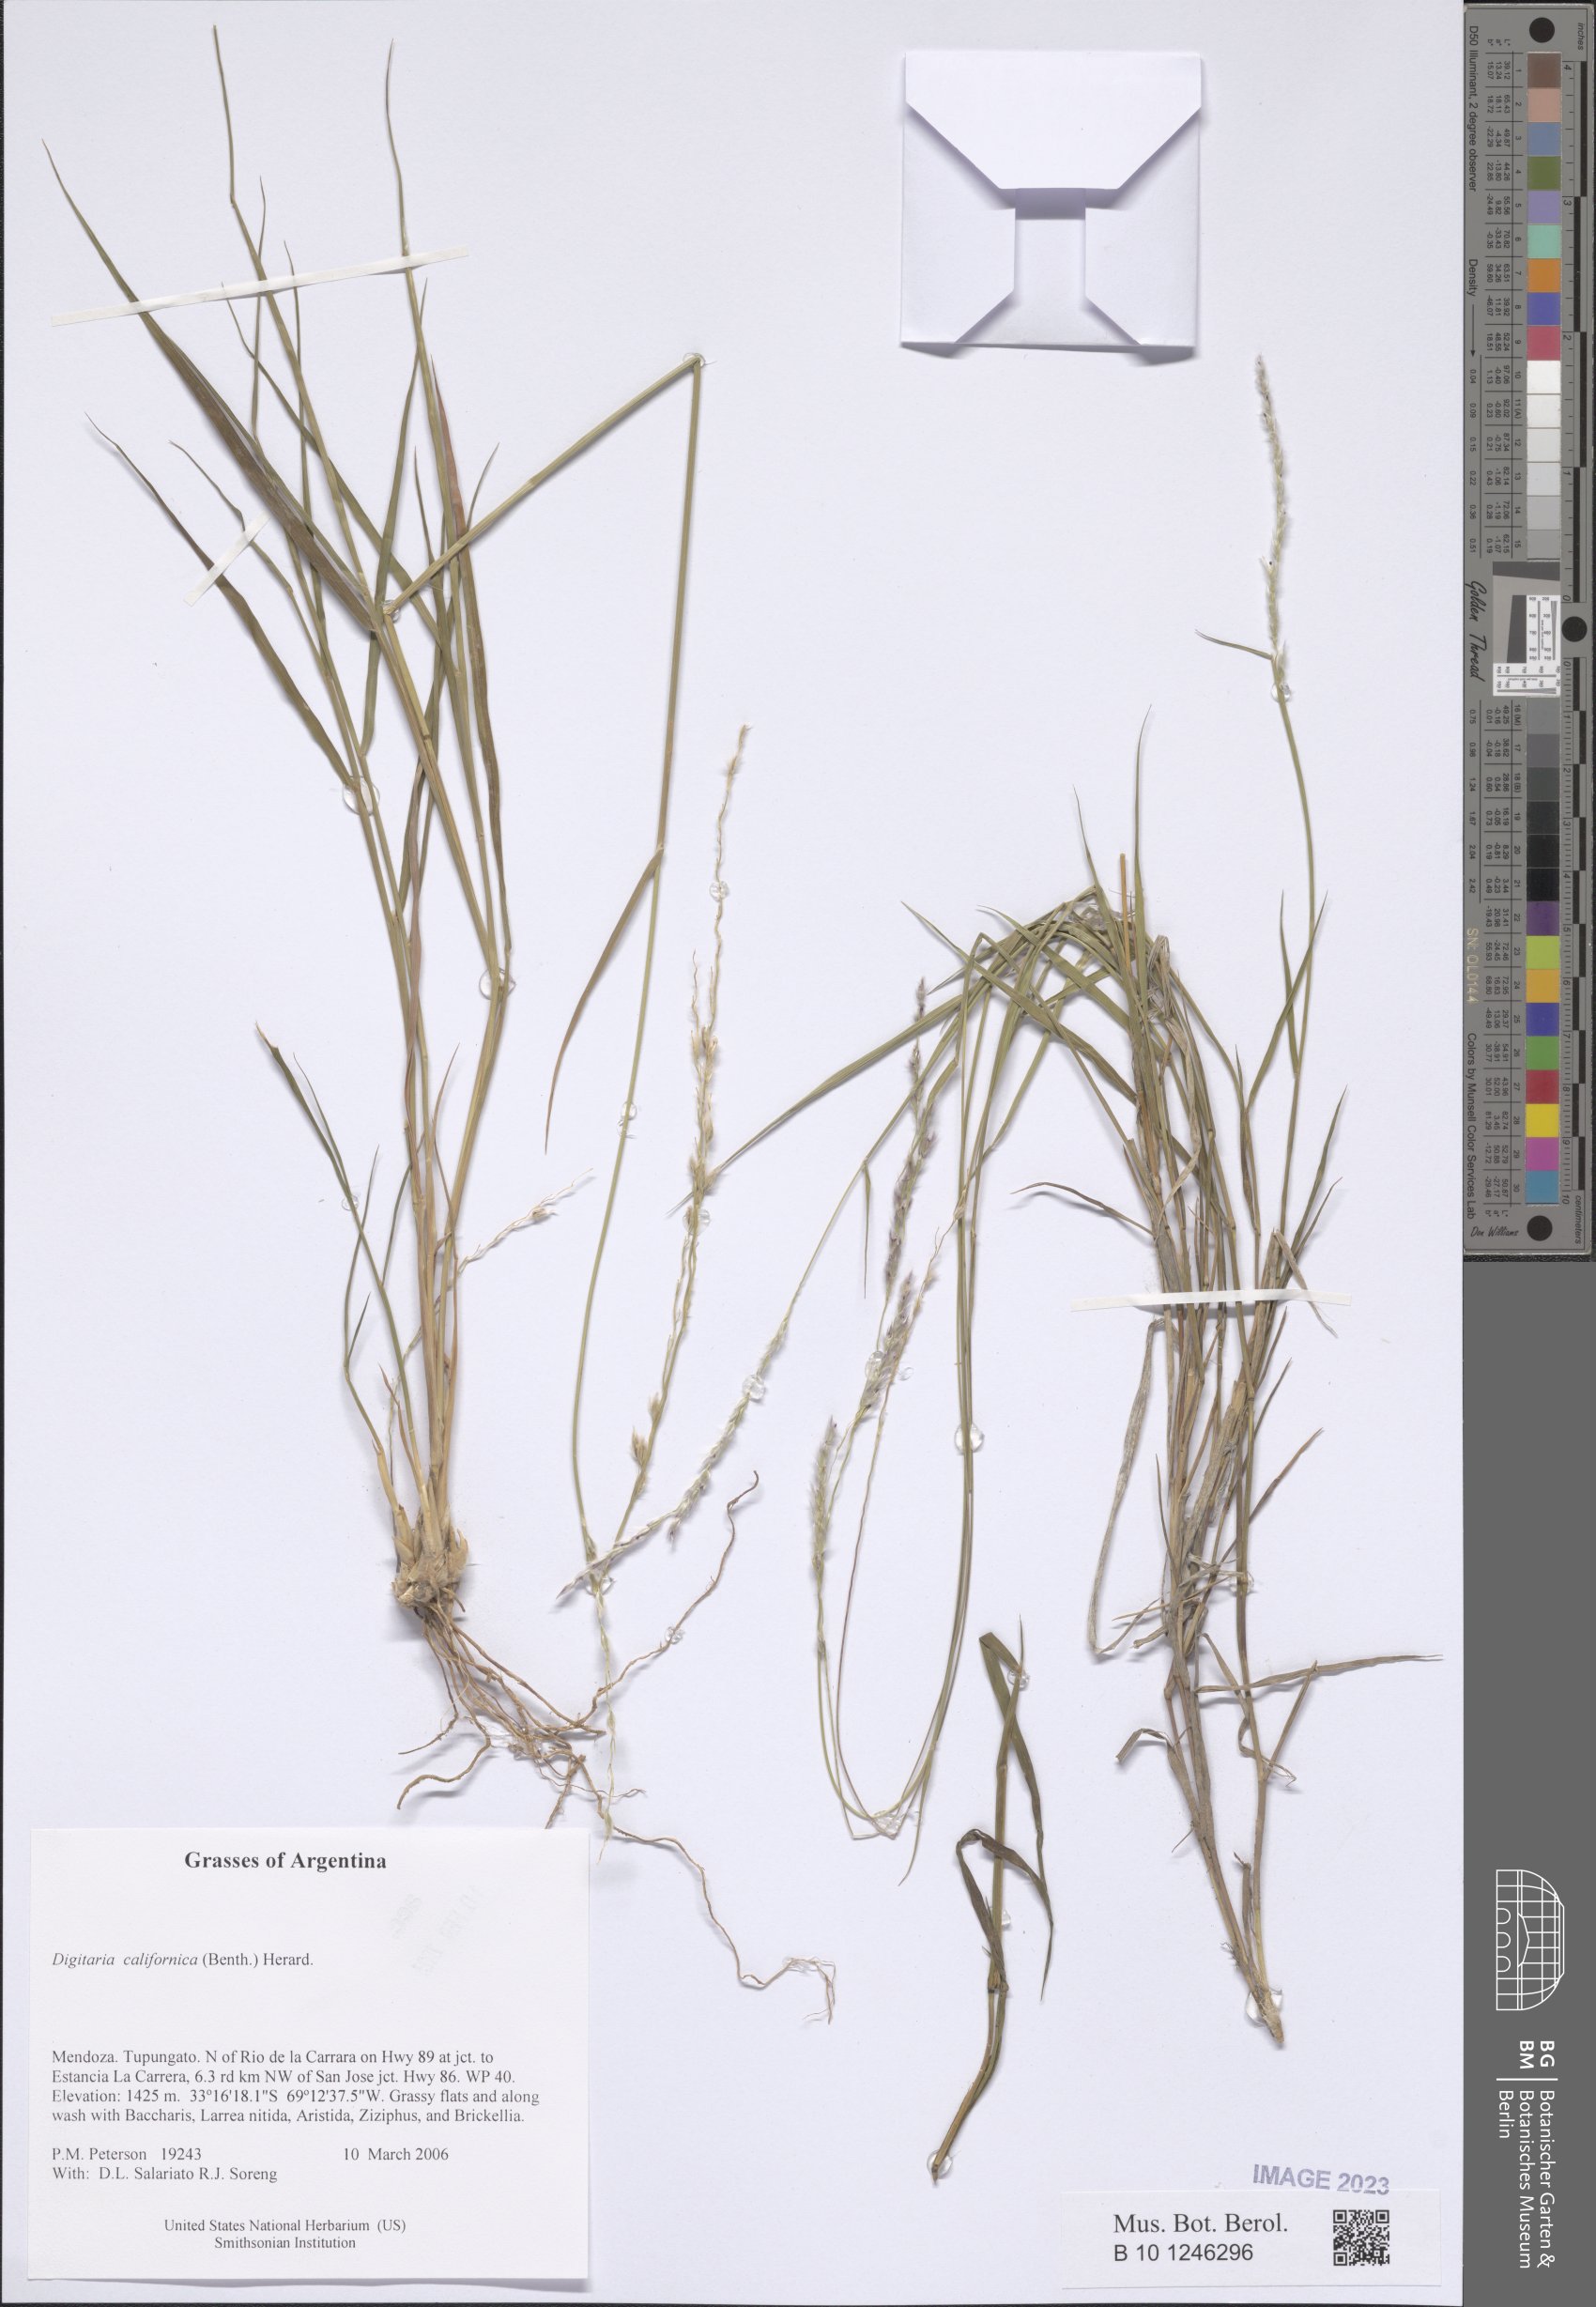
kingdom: Plantae
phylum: Tracheophyta
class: Liliopsida
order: Poales
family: Poaceae
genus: Digitaria
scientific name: Digitaria californica
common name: Arizona cottontop
